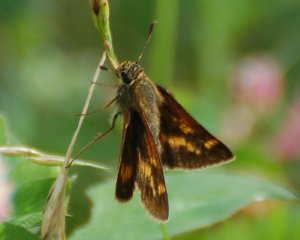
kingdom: Animalia
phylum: Arthropoda
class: Insecta
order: Lepidoptera
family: Hesperiidae
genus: Polites
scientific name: Polites
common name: Long Dash Skipper
